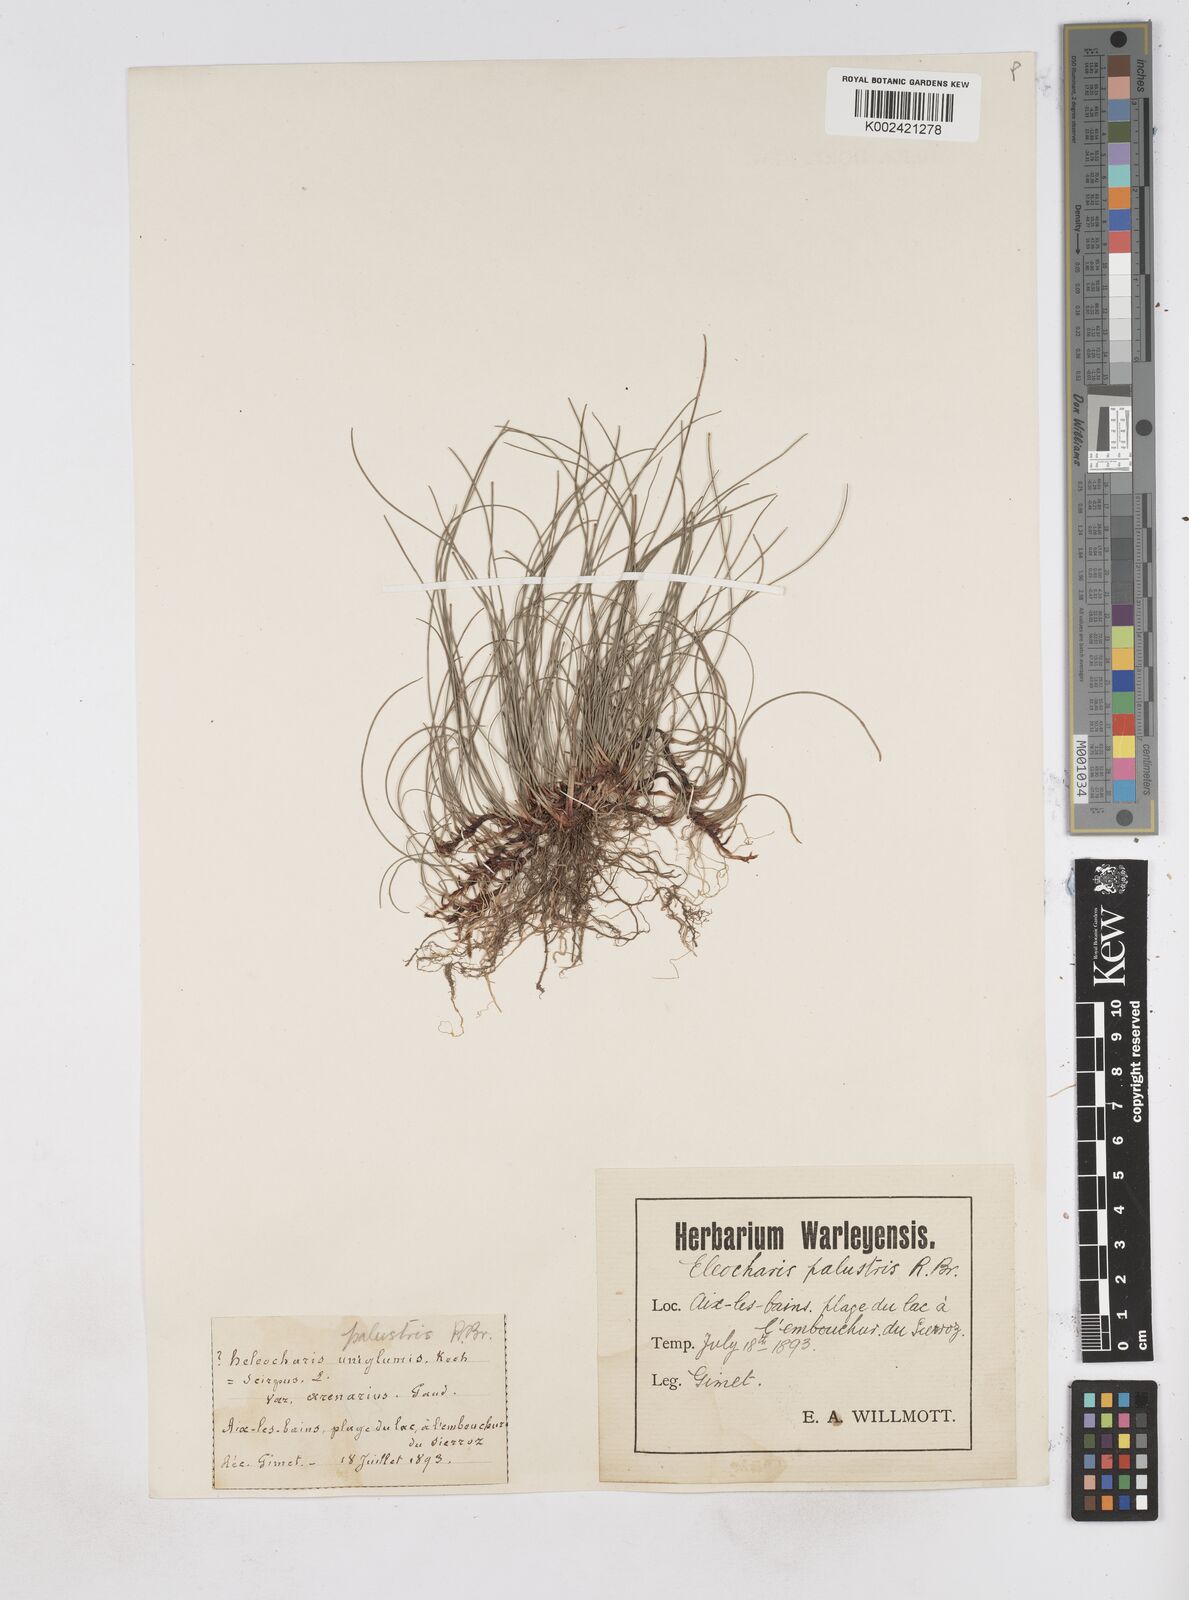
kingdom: Plantae
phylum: Tracheophyta
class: Liliopsida
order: Poales
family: Cyperaceae
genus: Eleocharis
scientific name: Eleocharis palustris
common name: Common spike-rush
